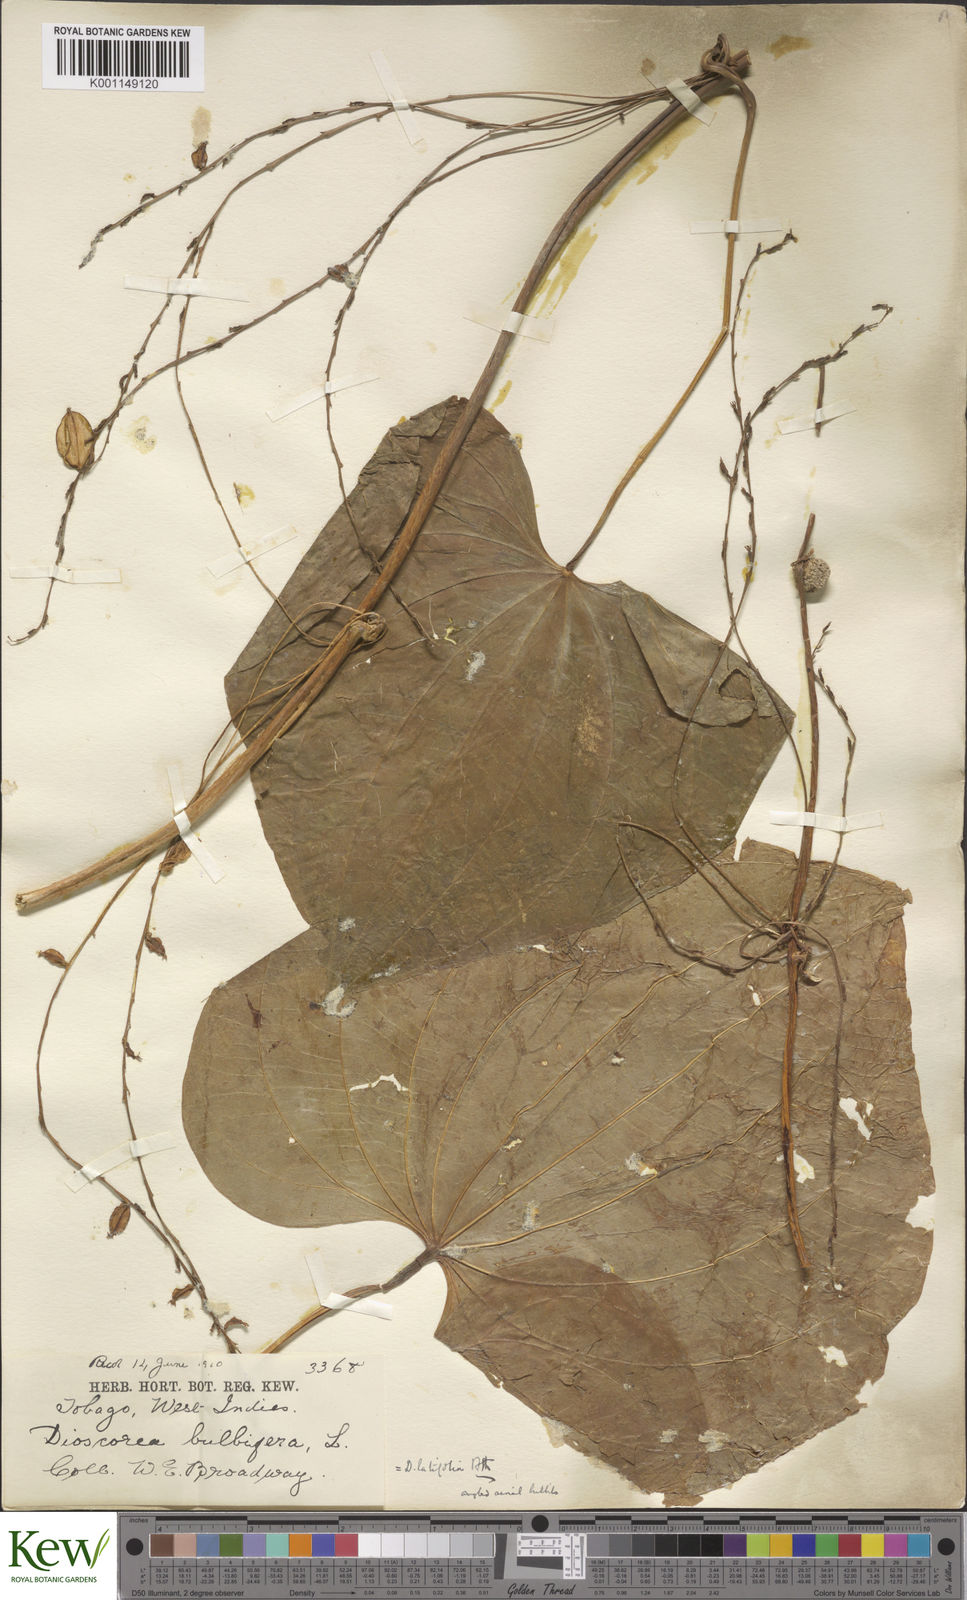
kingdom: Plantae
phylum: Tracheophyta
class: Liliopsida
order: Dioscoreales
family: Dioscoreaceae
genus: Dioscorea
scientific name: Dioscorea chondrocarpa
